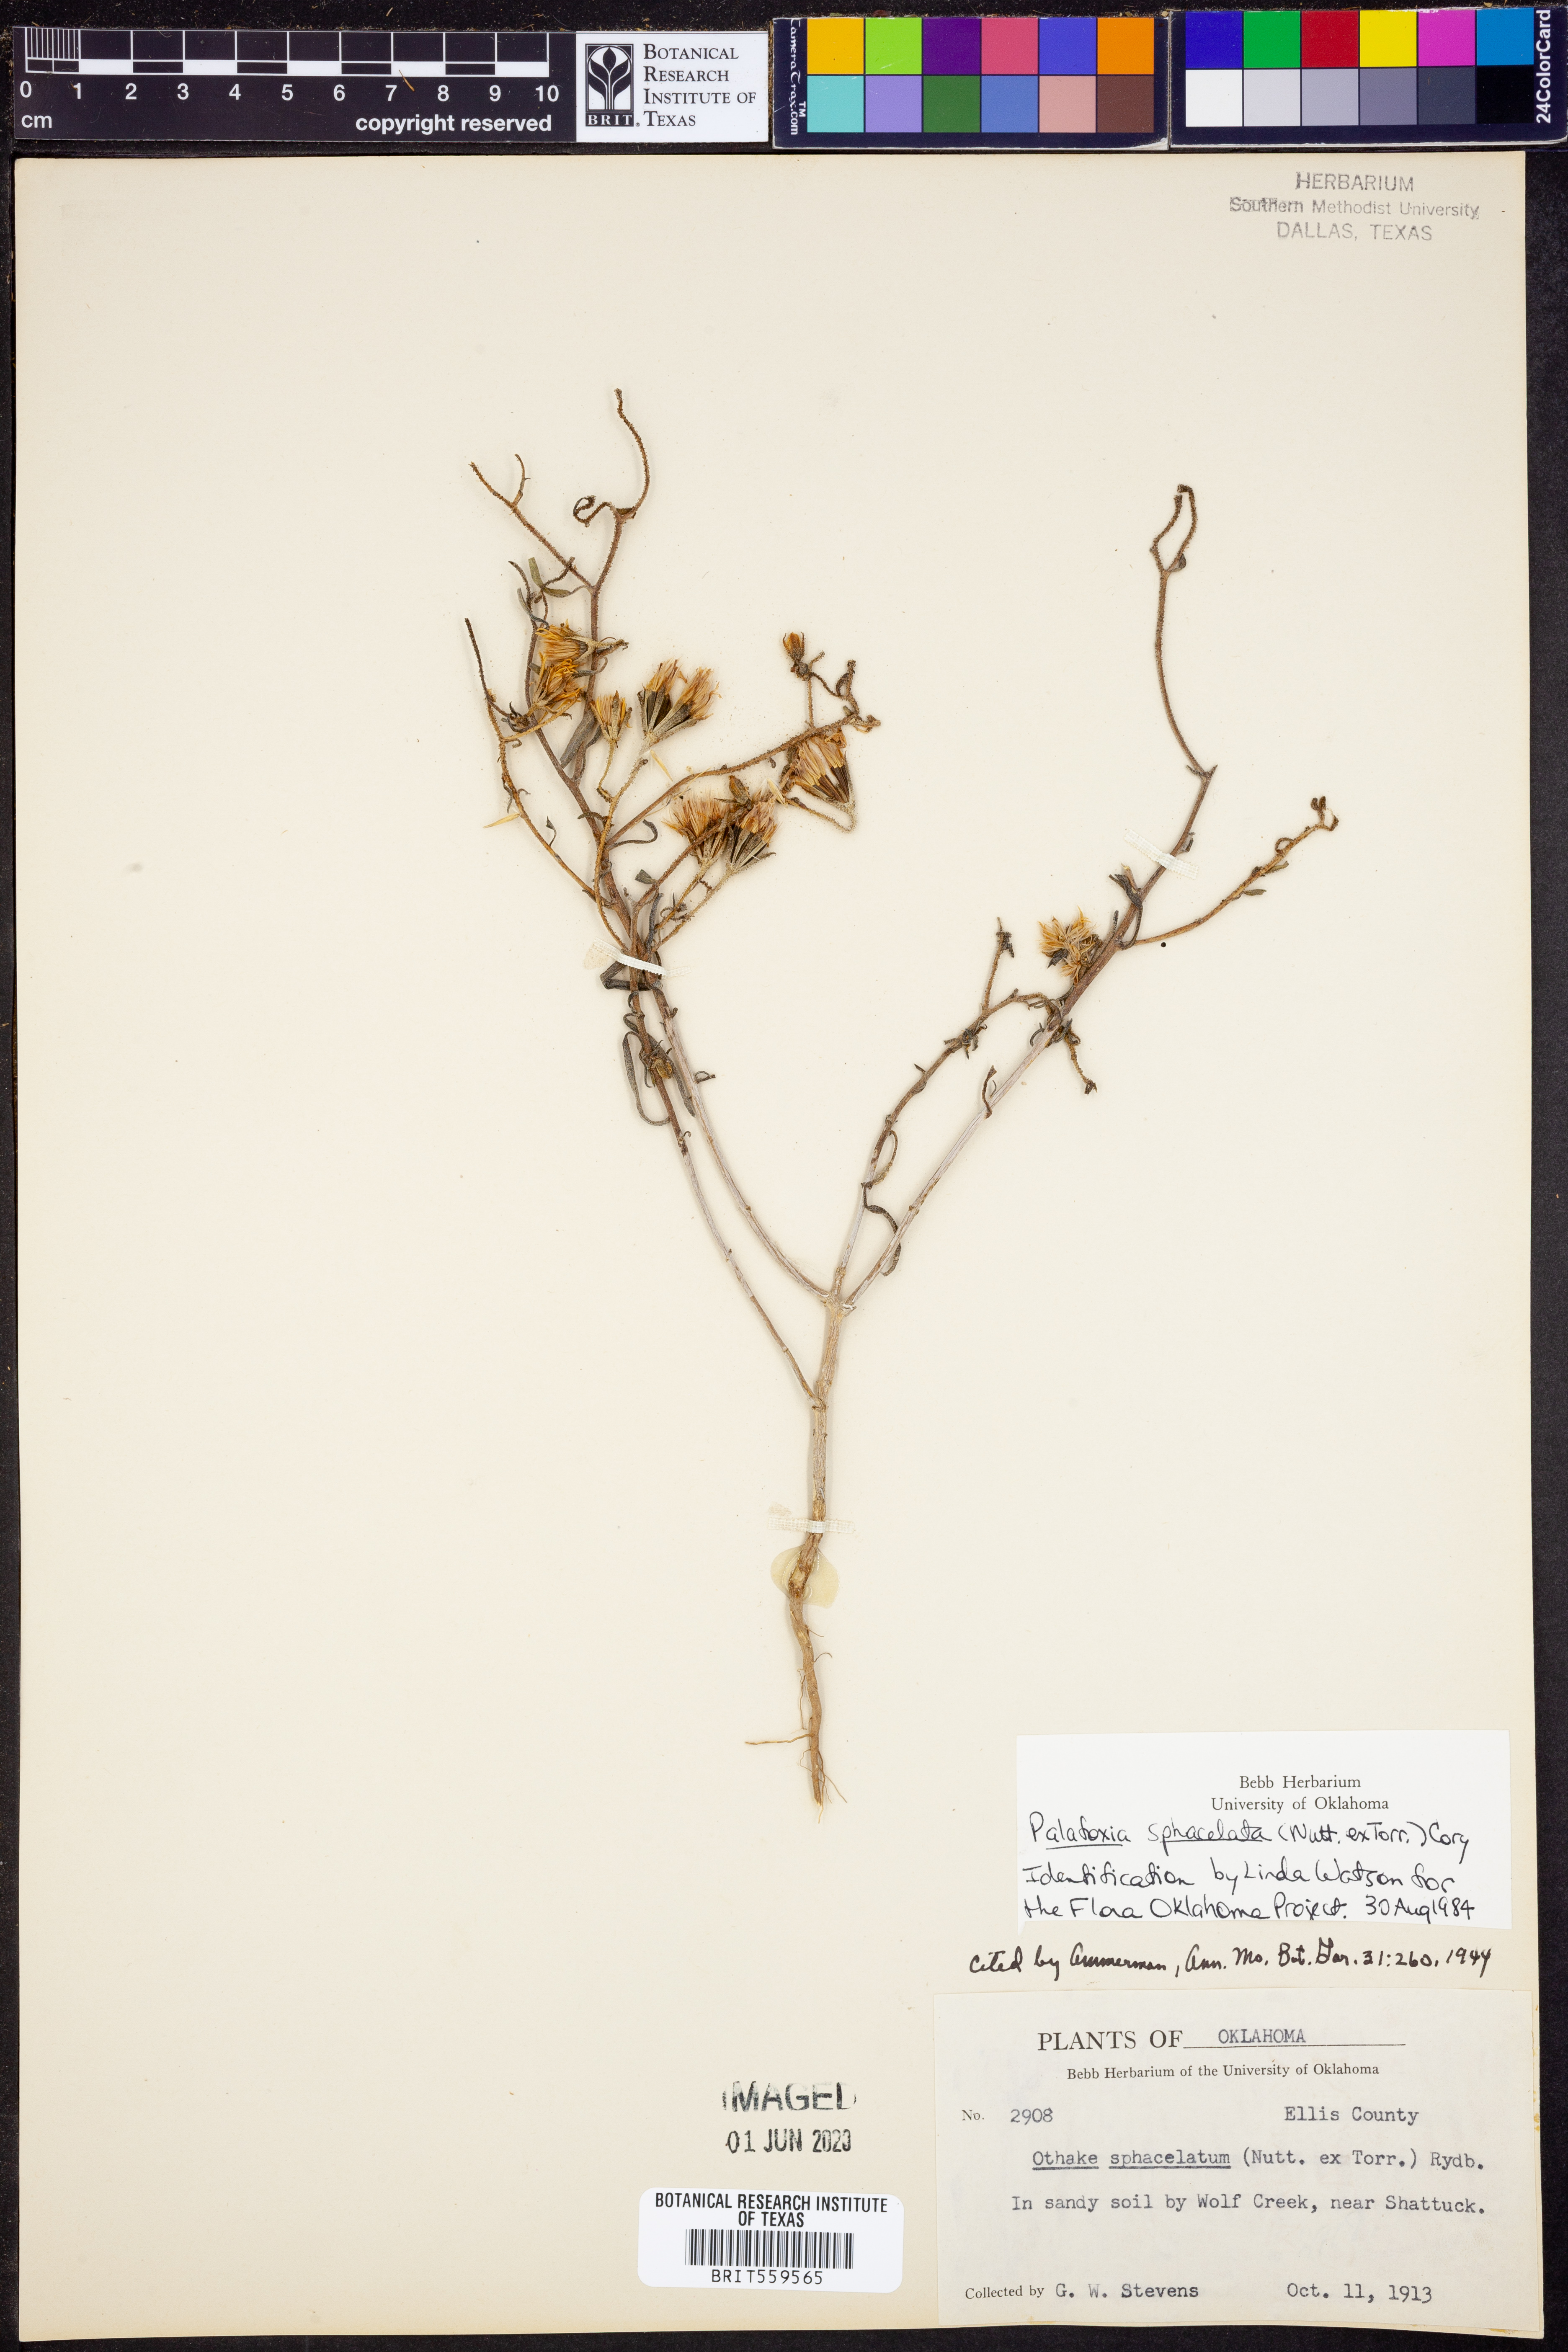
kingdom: Plantae
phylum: Tracheophyta
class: Magnoliopsida
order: Asterales
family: Asteraceae
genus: Palafoxia
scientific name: Palafoxia sphacelata
